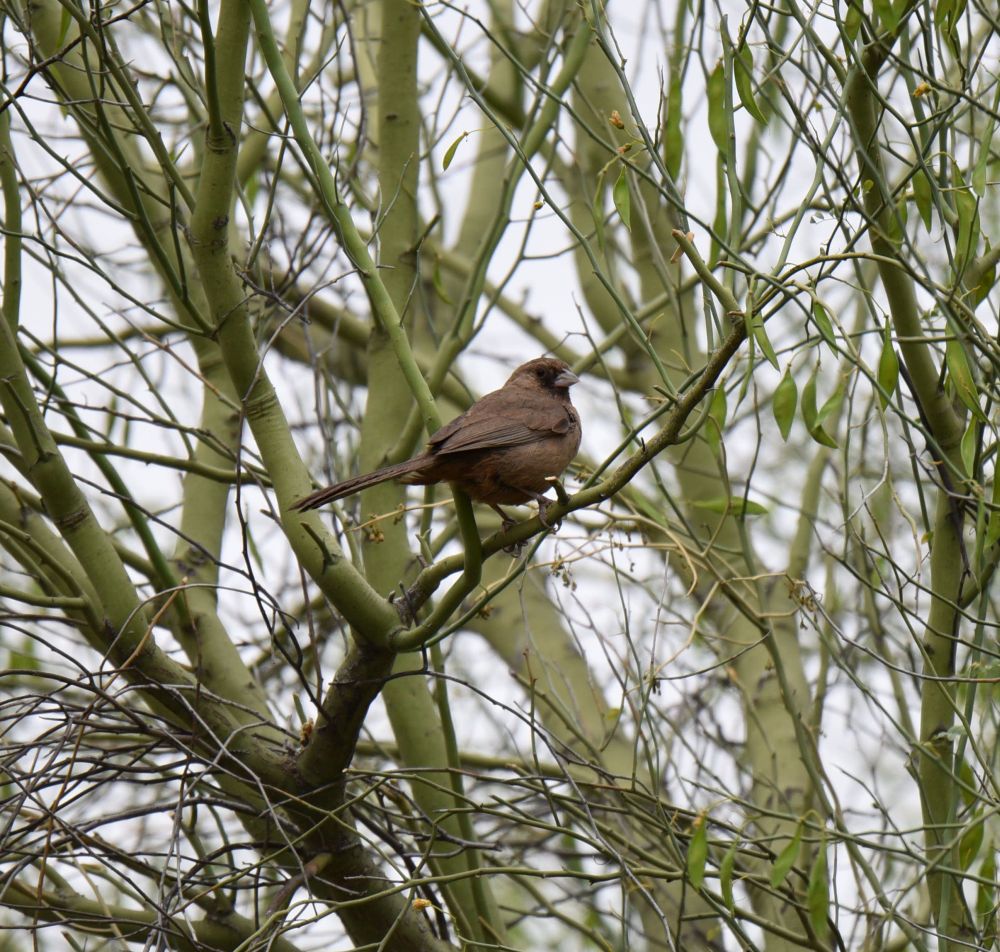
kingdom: Animalia
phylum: Chordata
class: Aves
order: Passeriformes
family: Passerellidae
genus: Melozone
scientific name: Melozone aberti
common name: Abert's towhee
